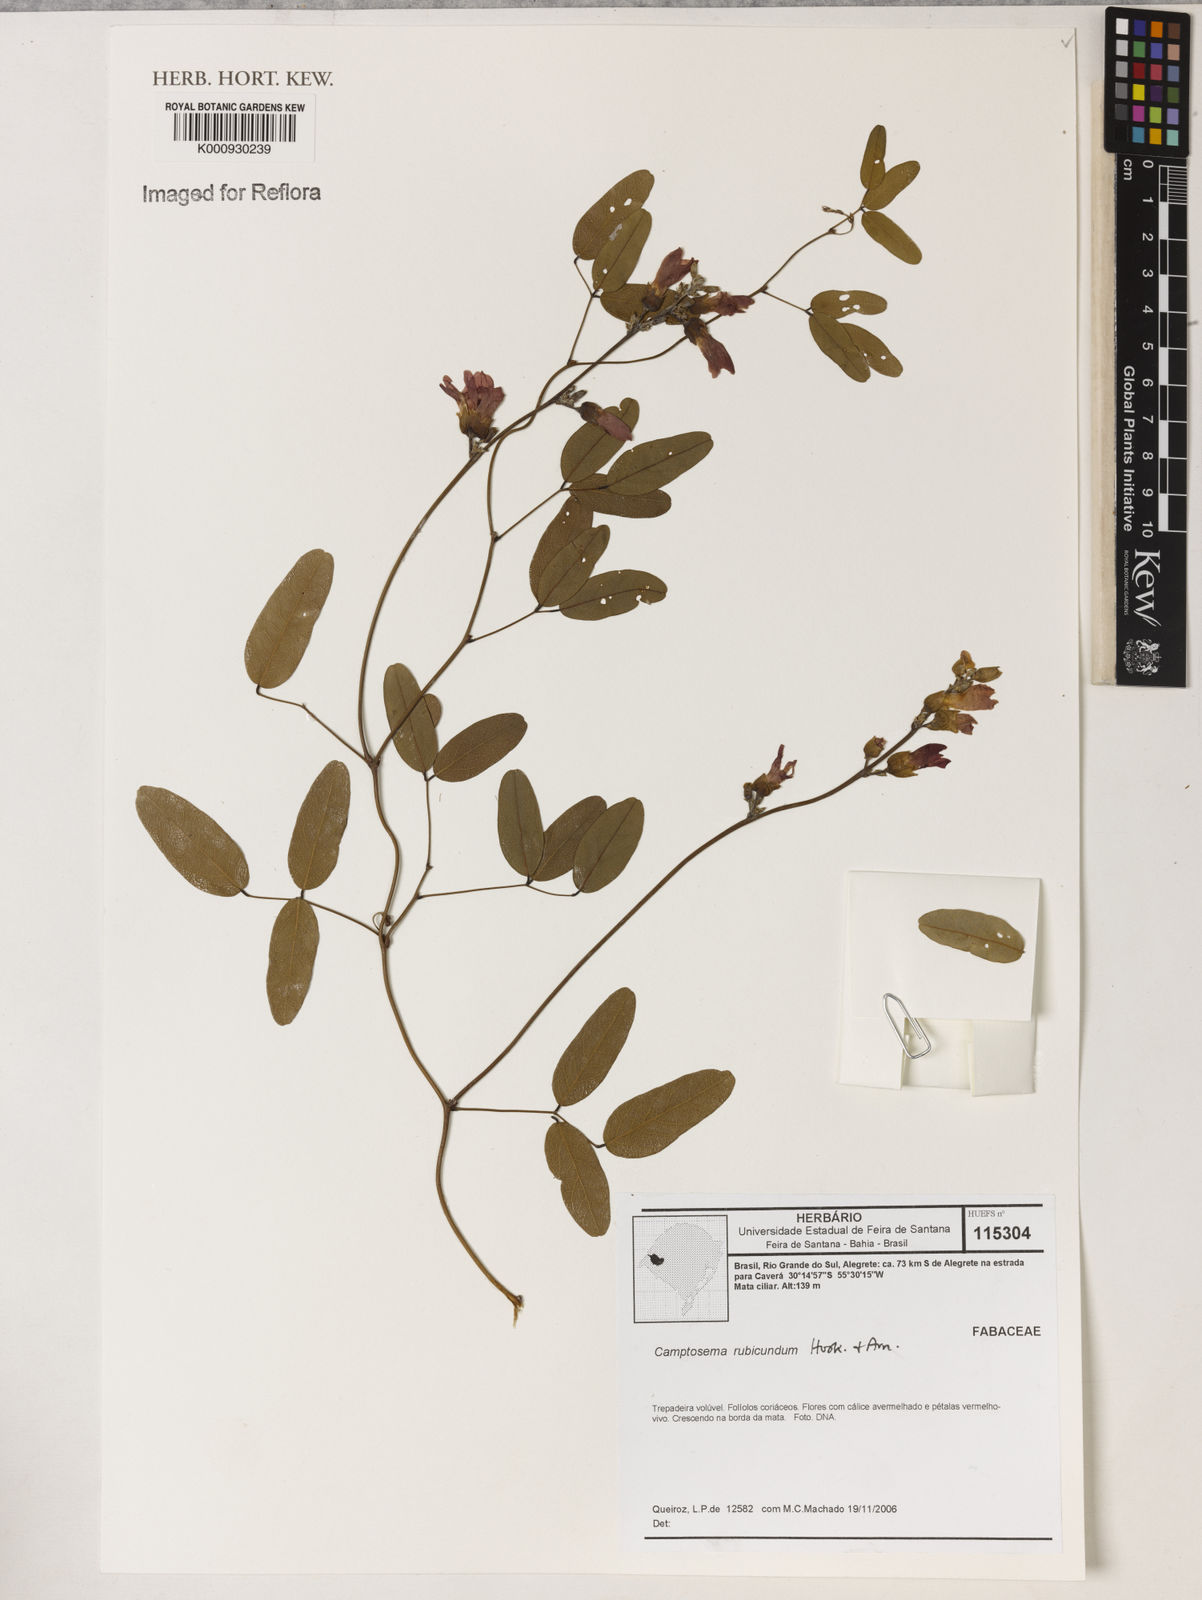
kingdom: Plantae
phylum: Tracheophyta
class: Magnoliopsida
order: Fabales
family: Fabaceae
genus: Camptosema
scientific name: Camptosema rubicundum
